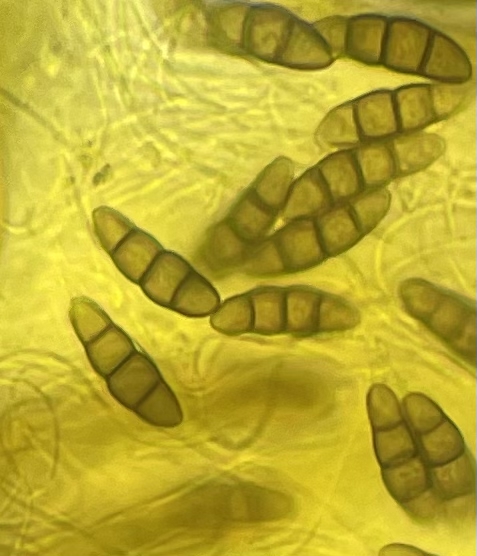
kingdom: Fungi
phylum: Ascomycota
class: Dothideomycetes
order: Pleosporales
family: Lophiostomataceae
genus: Lophiostoma
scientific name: Lophiostoma quadrinucleatum
